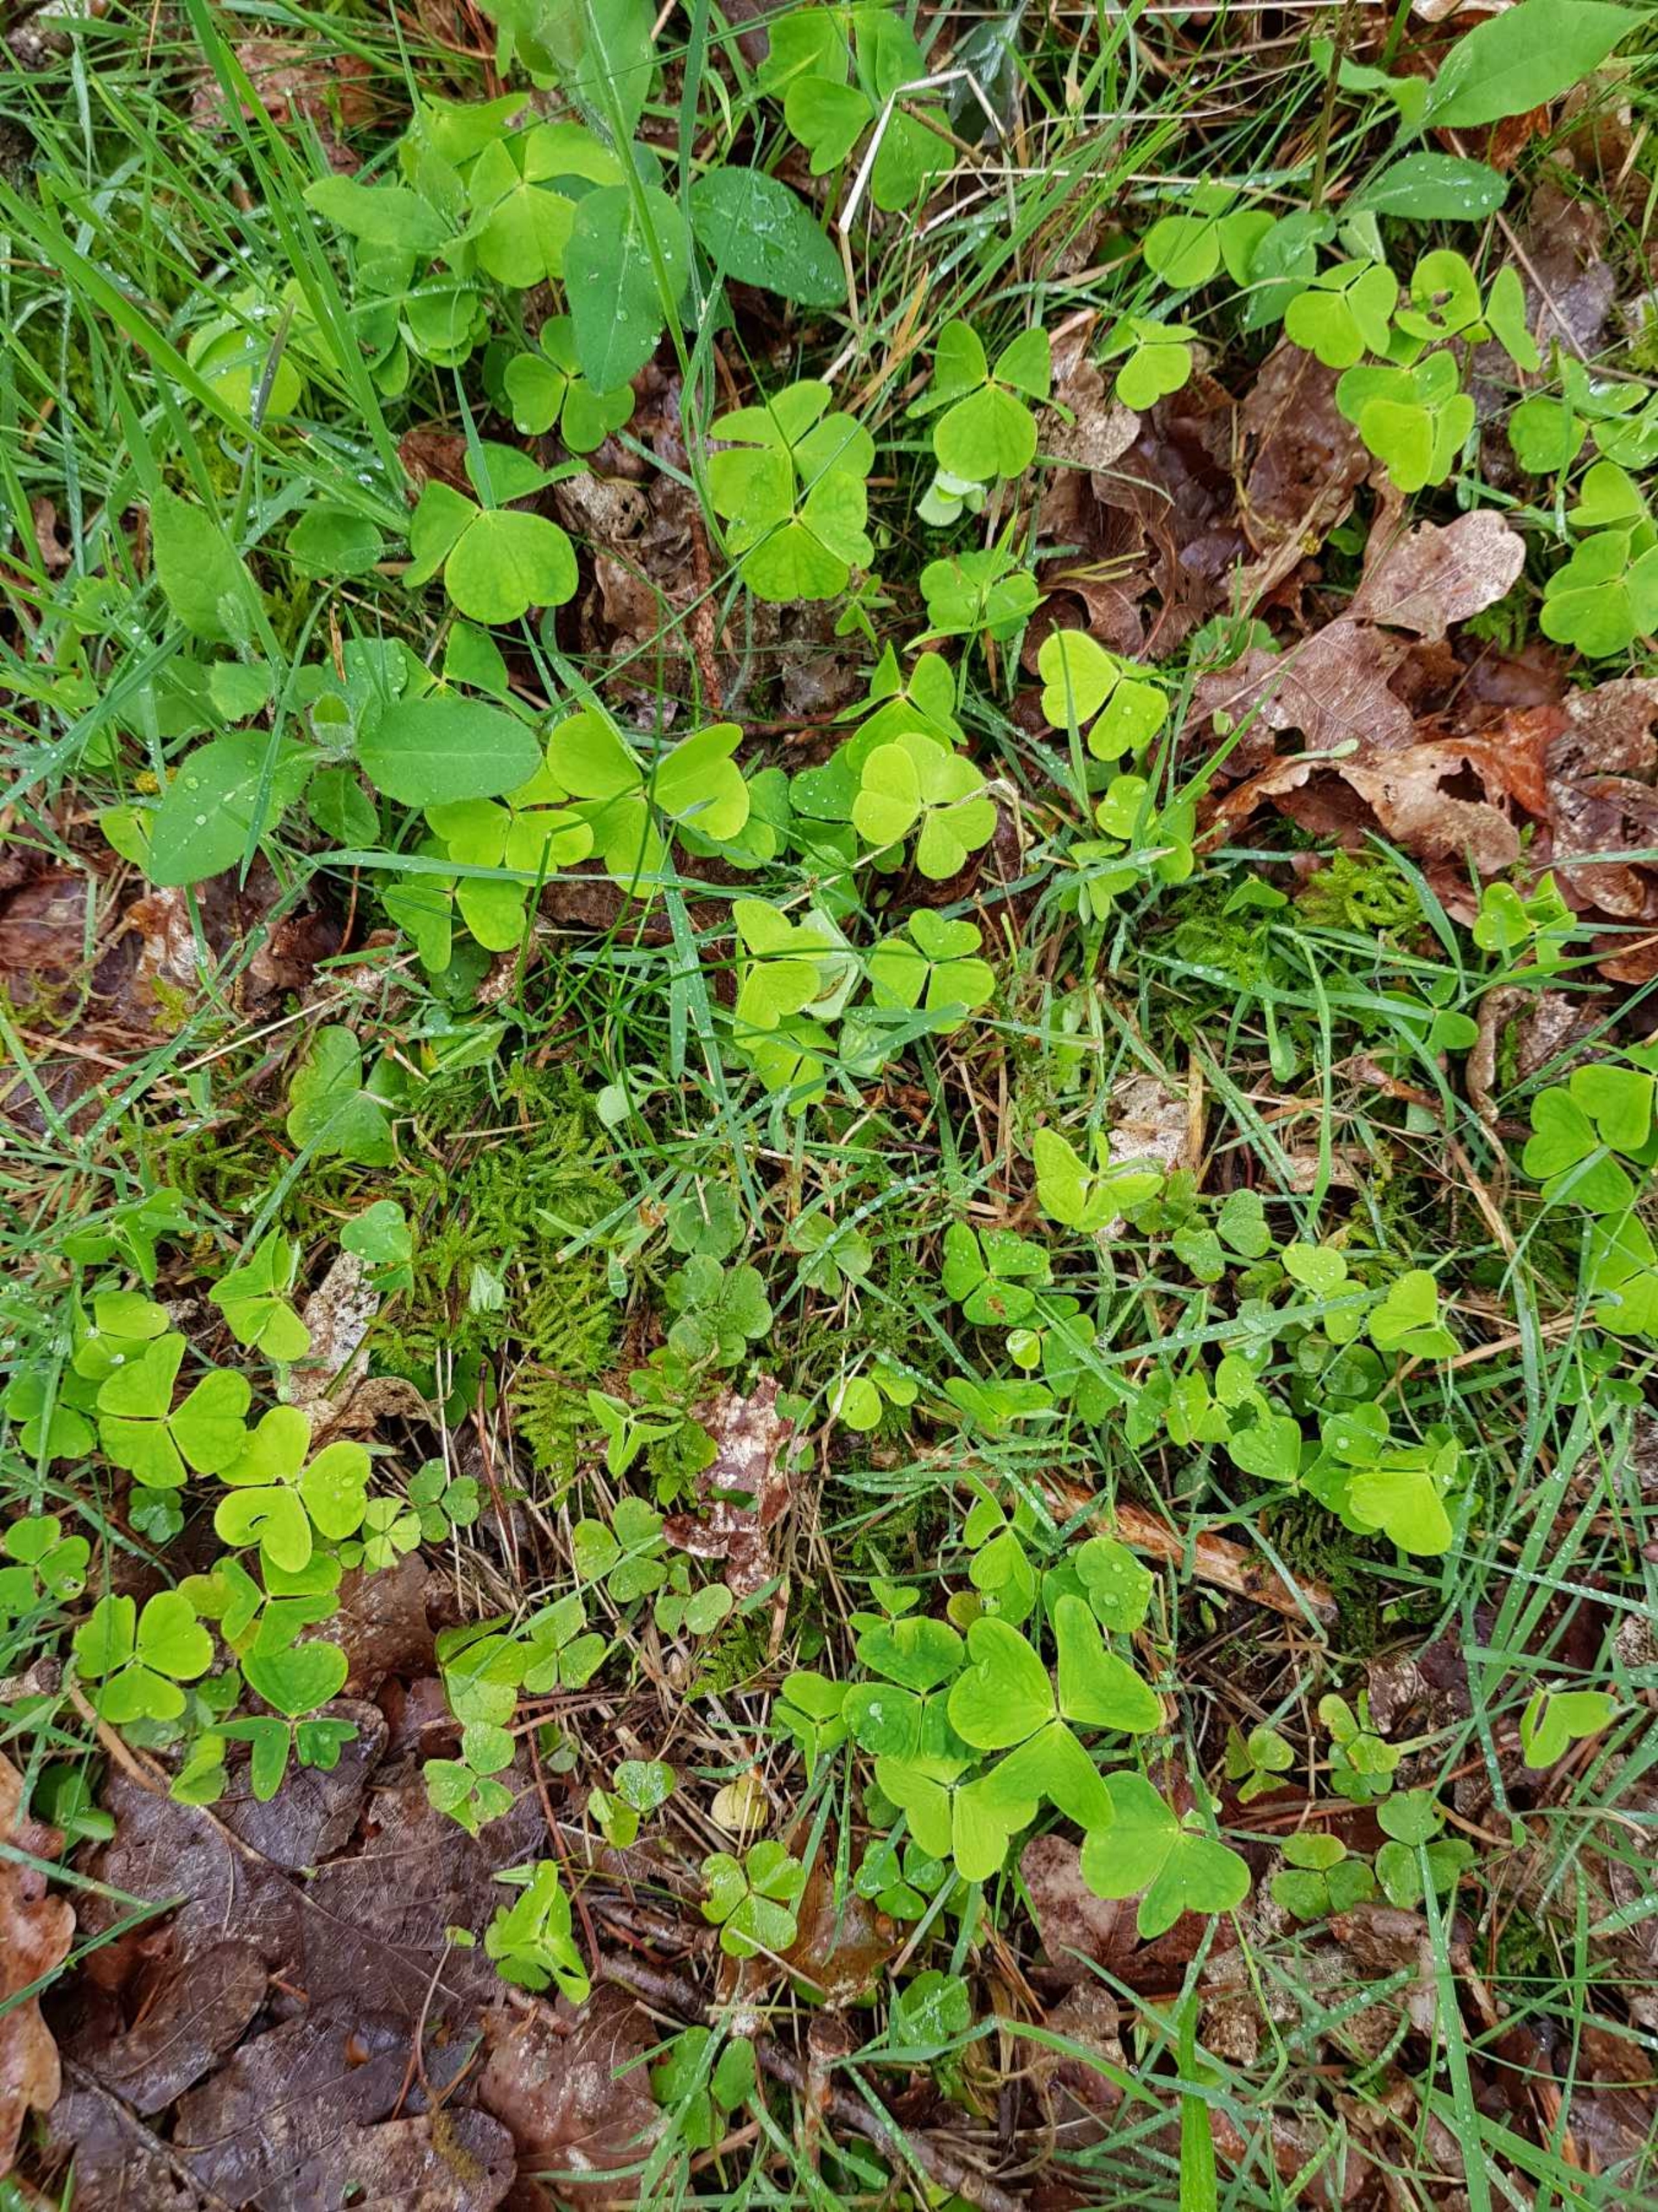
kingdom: Plantae
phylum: Tracheophyta
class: Magnoliopsida
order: Oxalidales
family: Oxalidaceae
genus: Oxalis
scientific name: Oxalis acetosella
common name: Skovsyre
